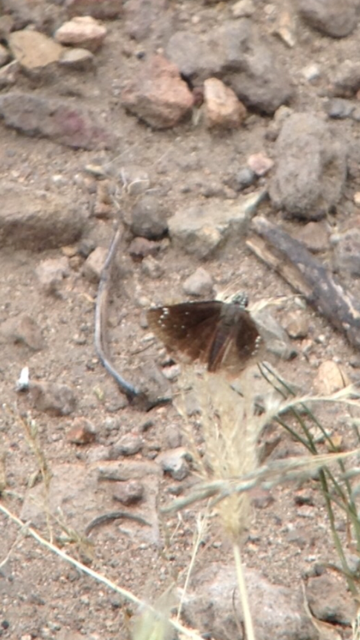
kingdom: Animalia
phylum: Arthropoda
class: Insecta
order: Lepidoptera
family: Hesperiidae
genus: Pholisora
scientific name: Pholisora catullus
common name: Common Sootywing
